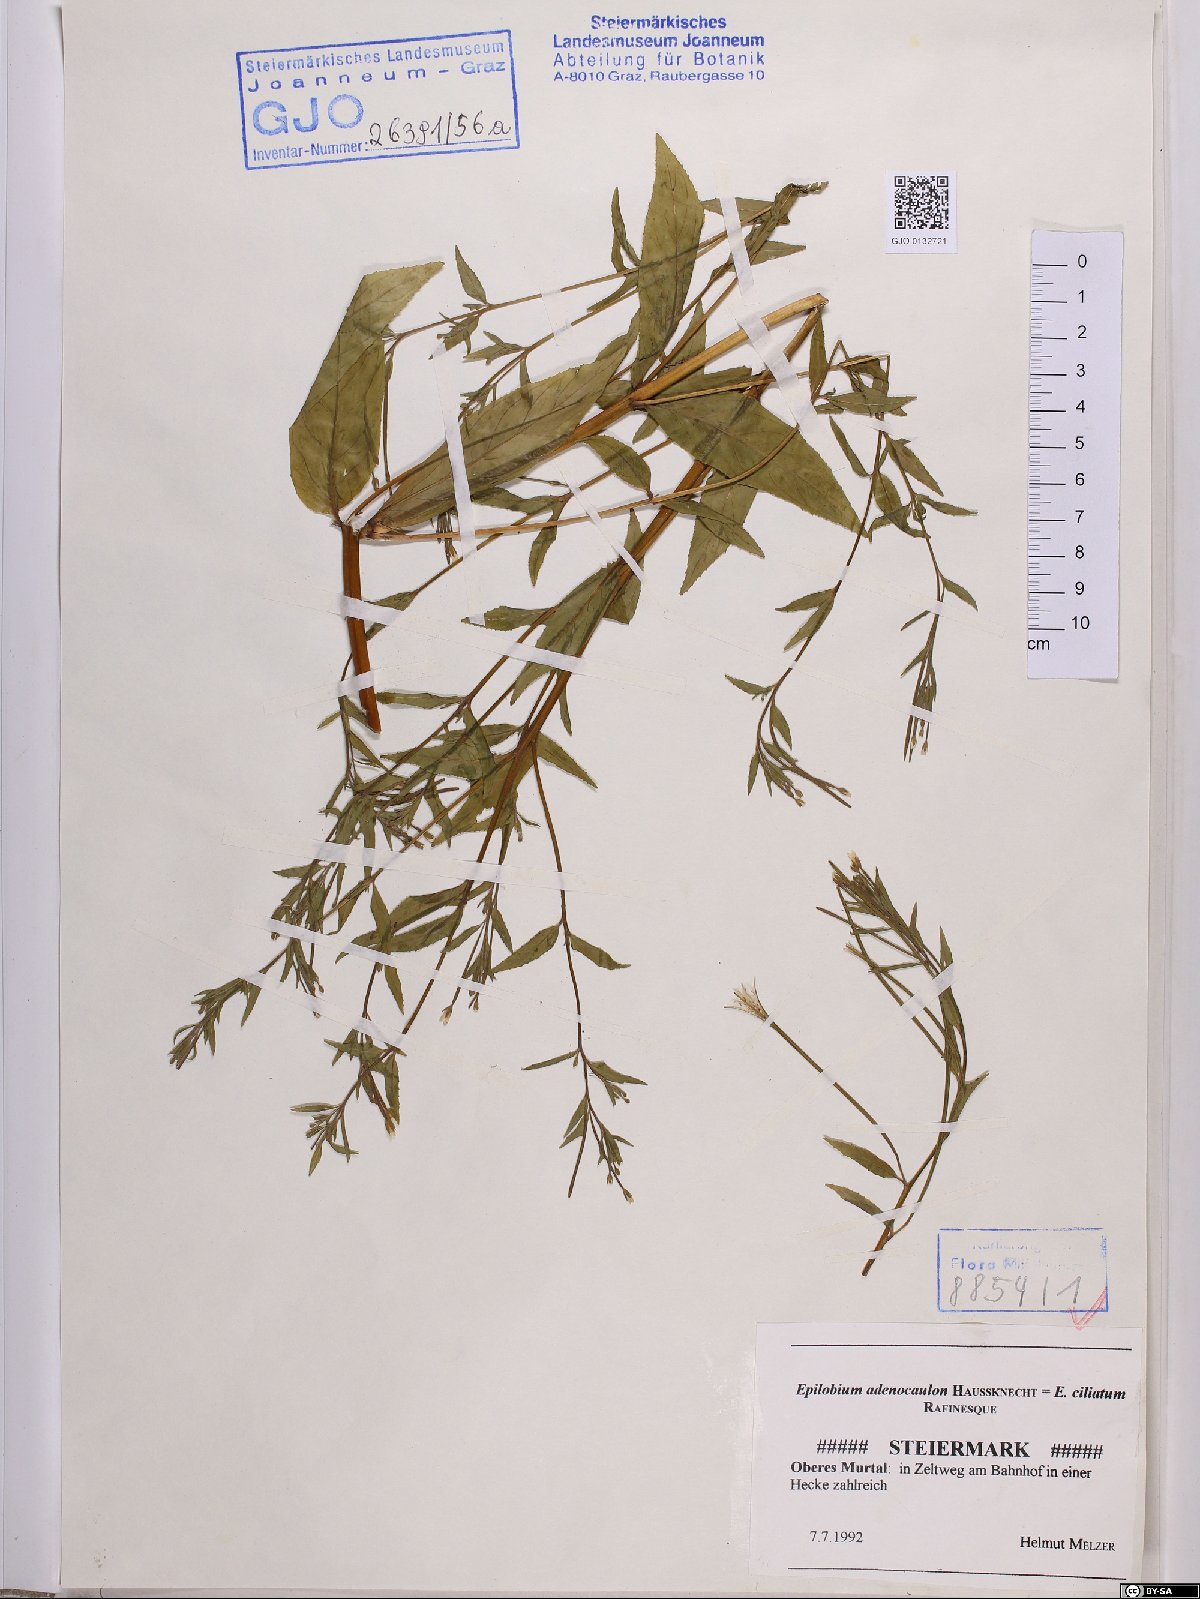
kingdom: Plantae
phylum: Tracheophyta
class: Magnoliopsida
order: Myrtales
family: Onagraceae
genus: Epilobium
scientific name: Epilobium ciliatum
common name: American willowherb
